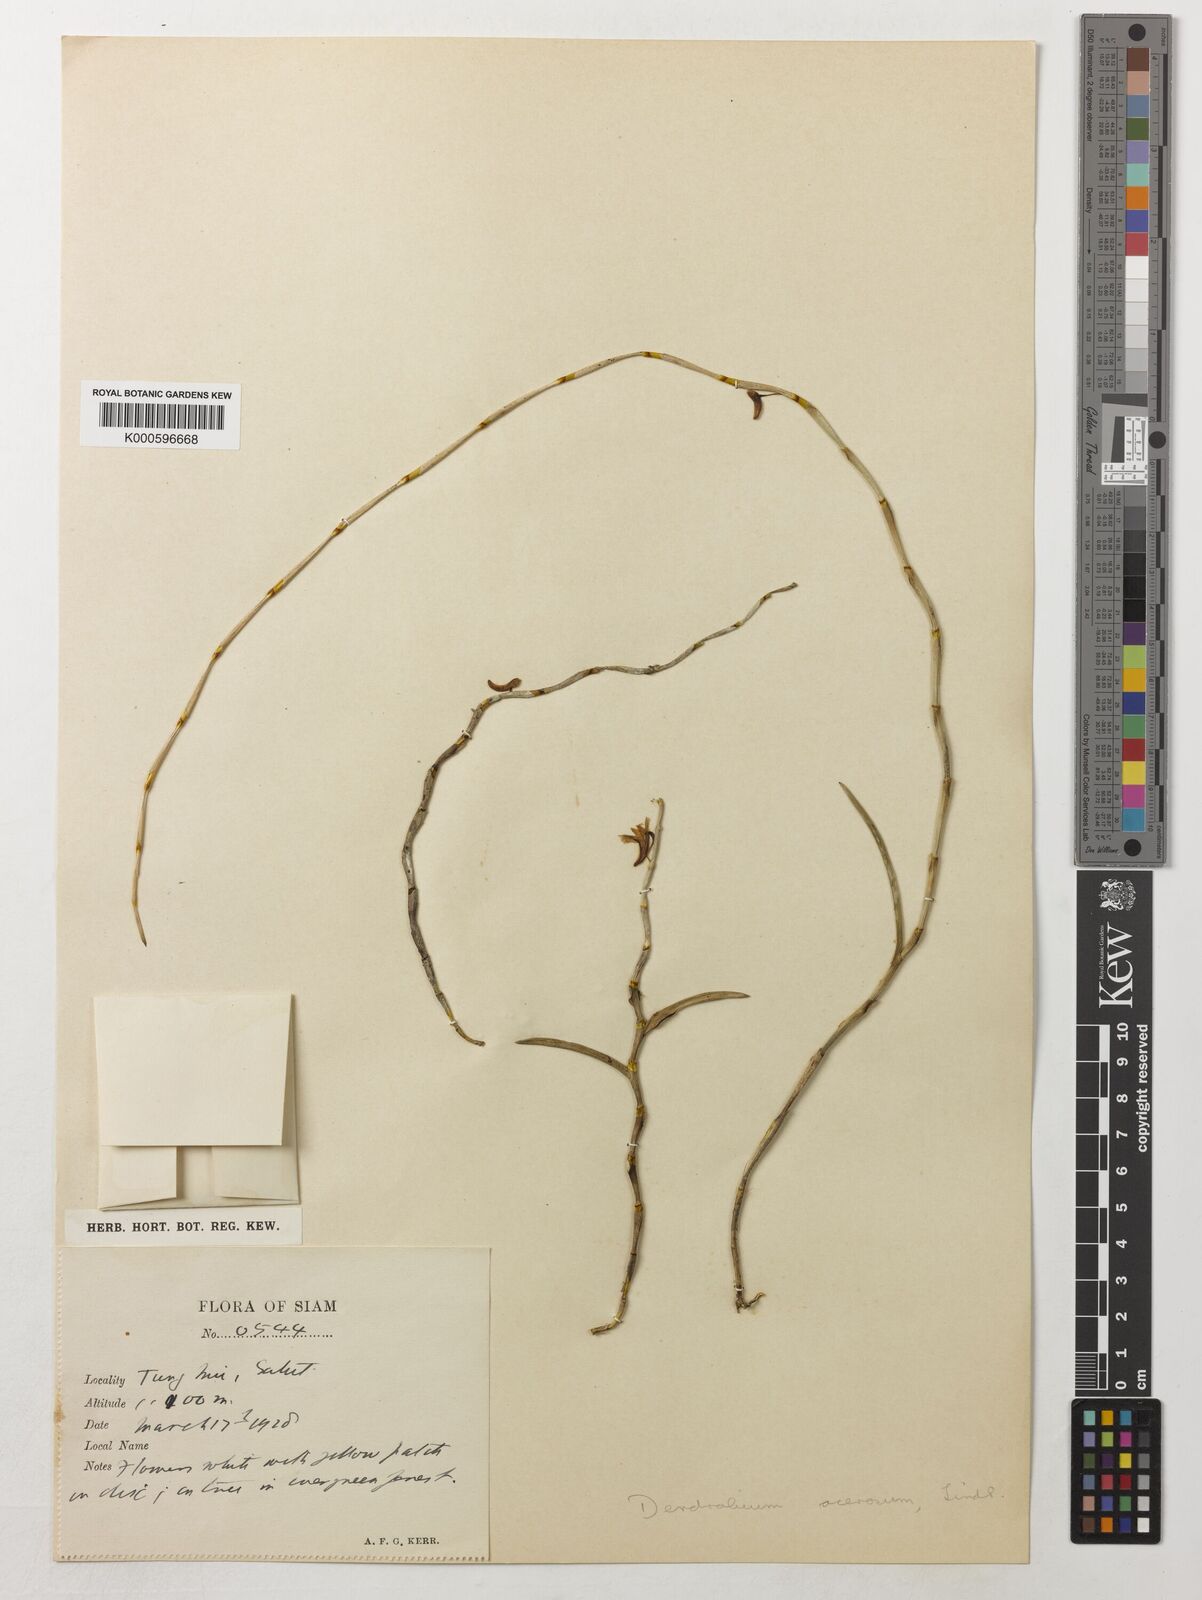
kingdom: Plantae
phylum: Tracheophyta
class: Liliopsida
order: Asparagales
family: Orchidaceae
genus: Dendrobium
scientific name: Dendrobium acerosum
